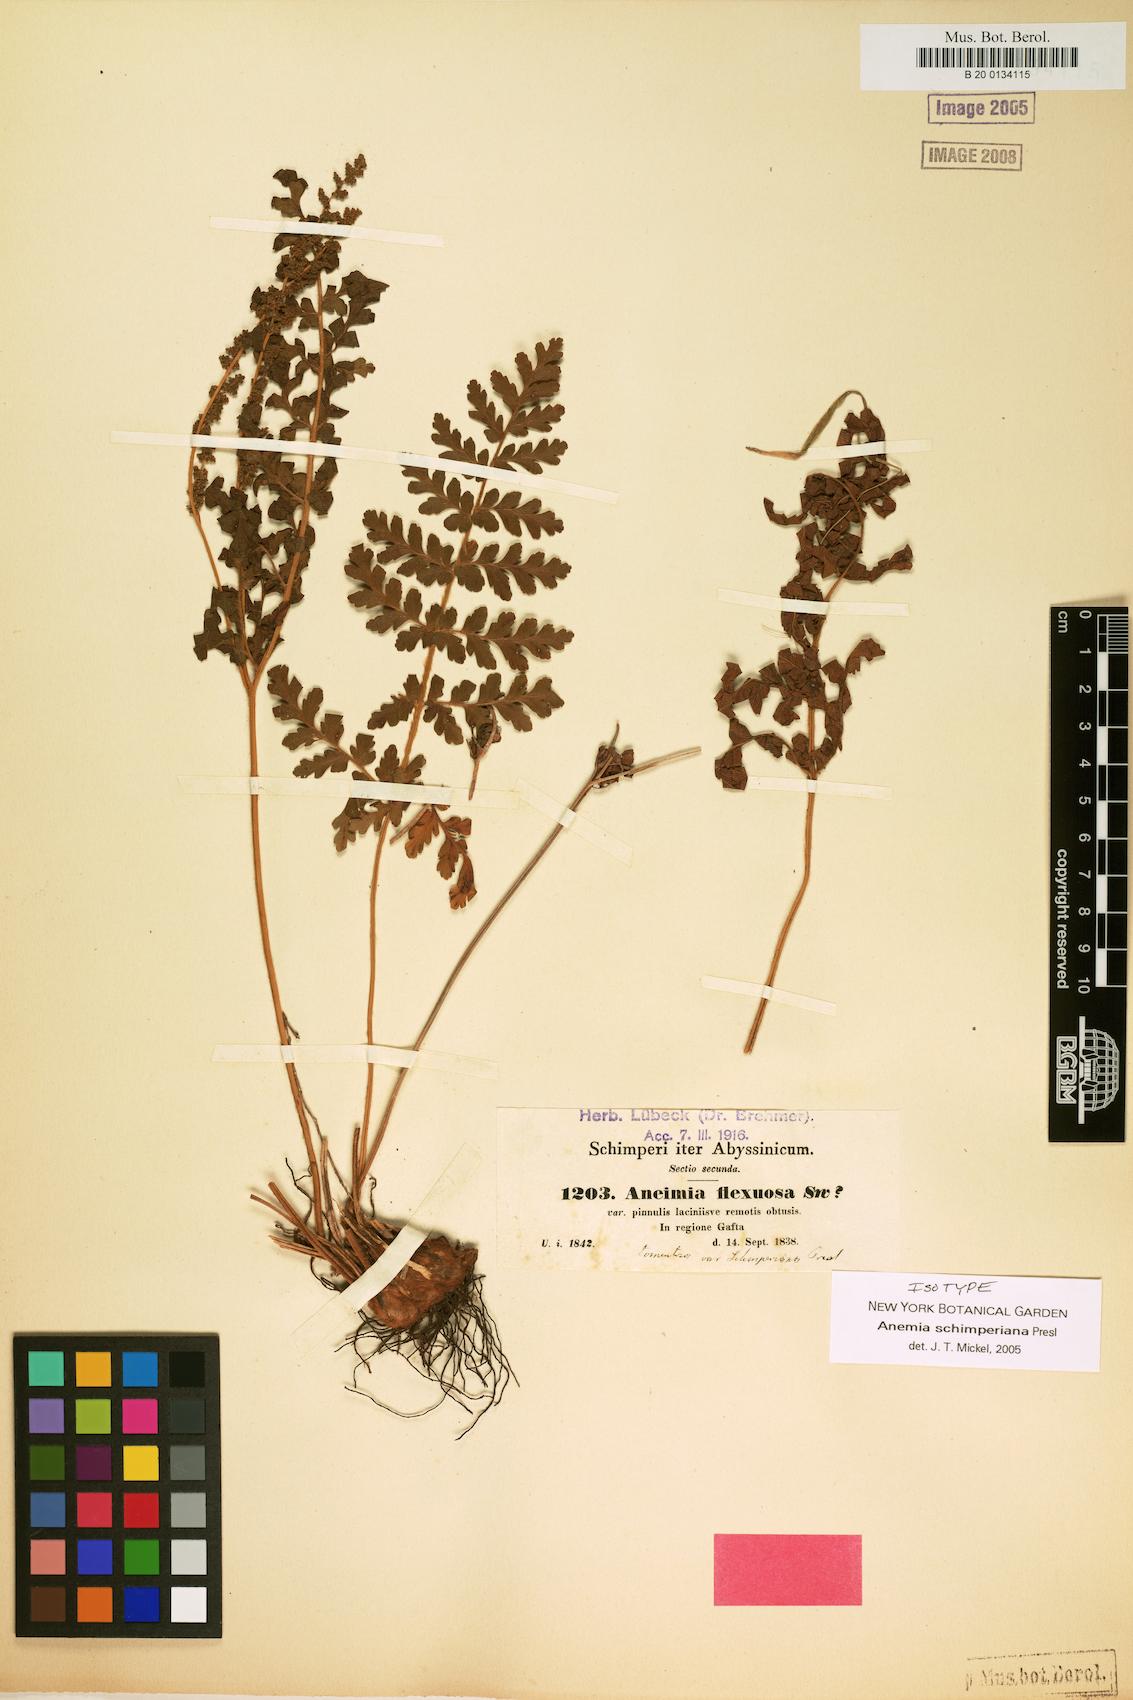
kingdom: Plantae
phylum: Tracheophyta
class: Polypodiopsida
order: Schizaeales
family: Anemiaceae
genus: Anemia
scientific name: Anemia schimperiana
